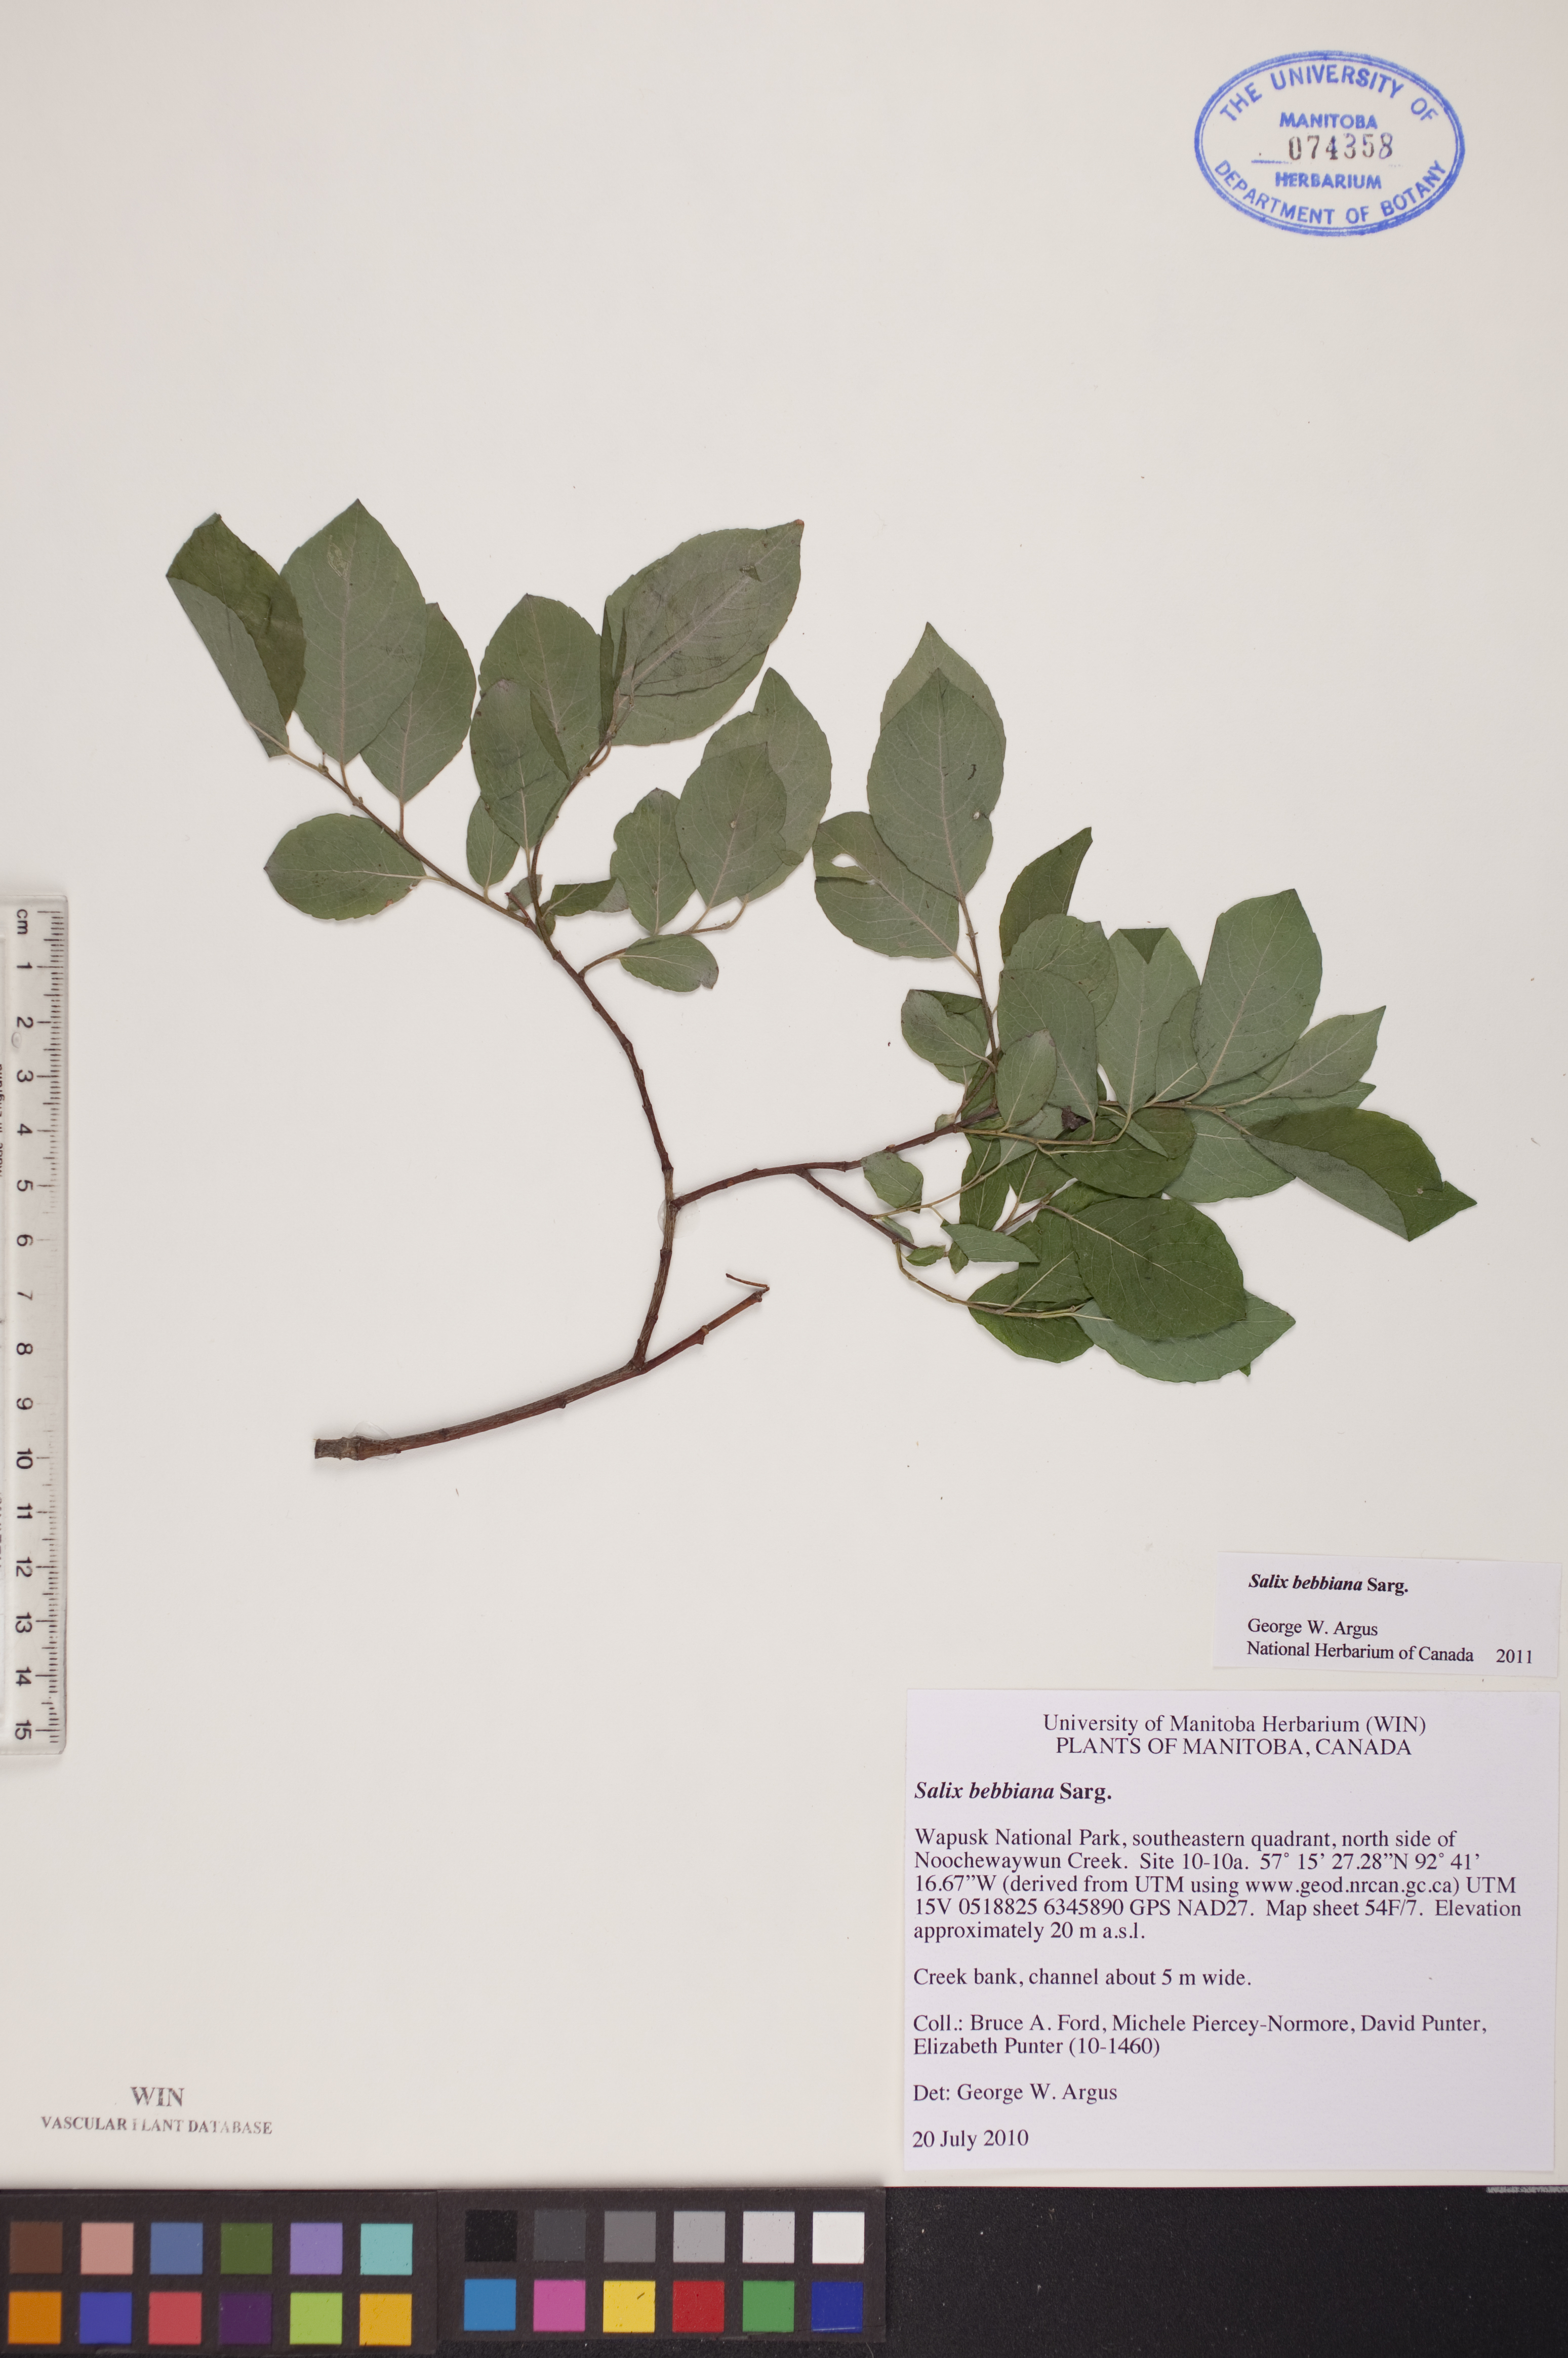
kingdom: Plantae
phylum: Tracheophyta
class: Magnoliopsida
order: Malpighiales
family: Salicaceae
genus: Salix
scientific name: Salix bebbiana
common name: Bebb's willow
